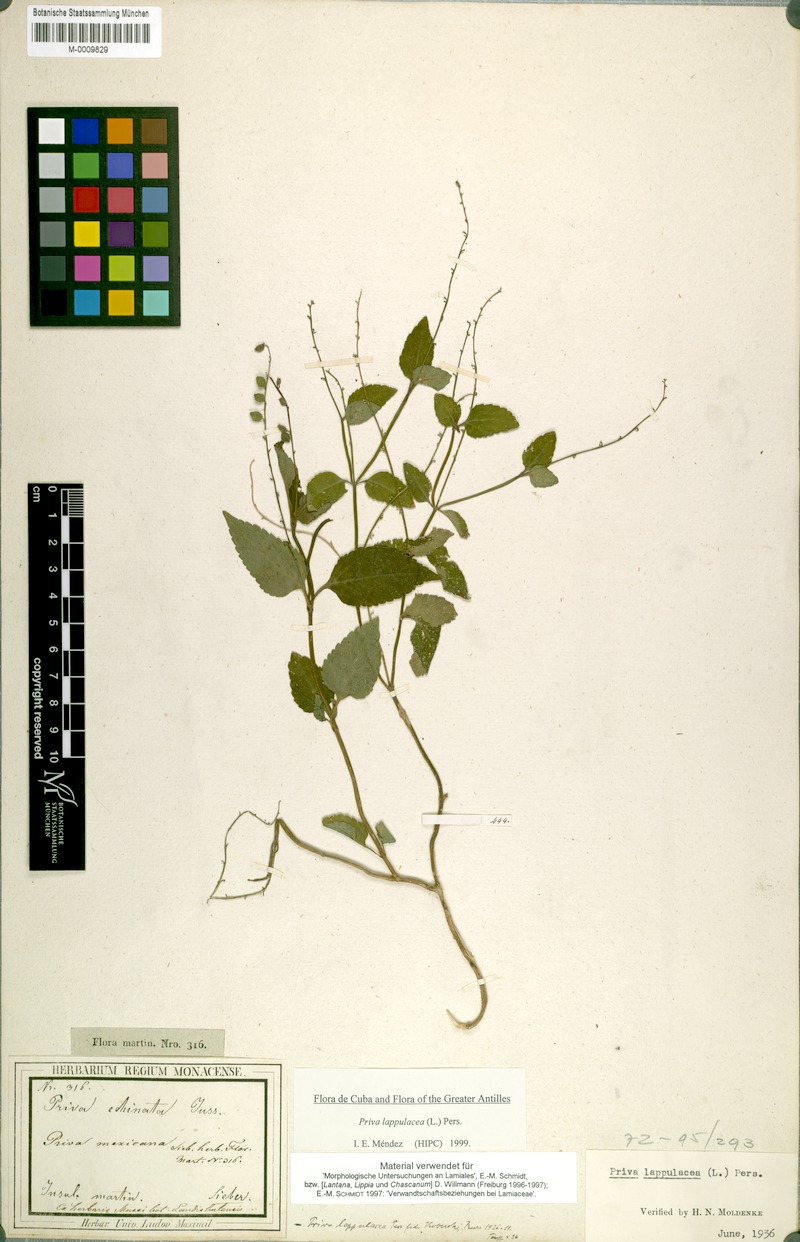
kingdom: Plantae
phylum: Tracheophyta
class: Magnoliopsida
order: Lamiales
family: Verbenaceae
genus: Priva
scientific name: Priva lappulacea
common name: Fasten-'pon-coat
